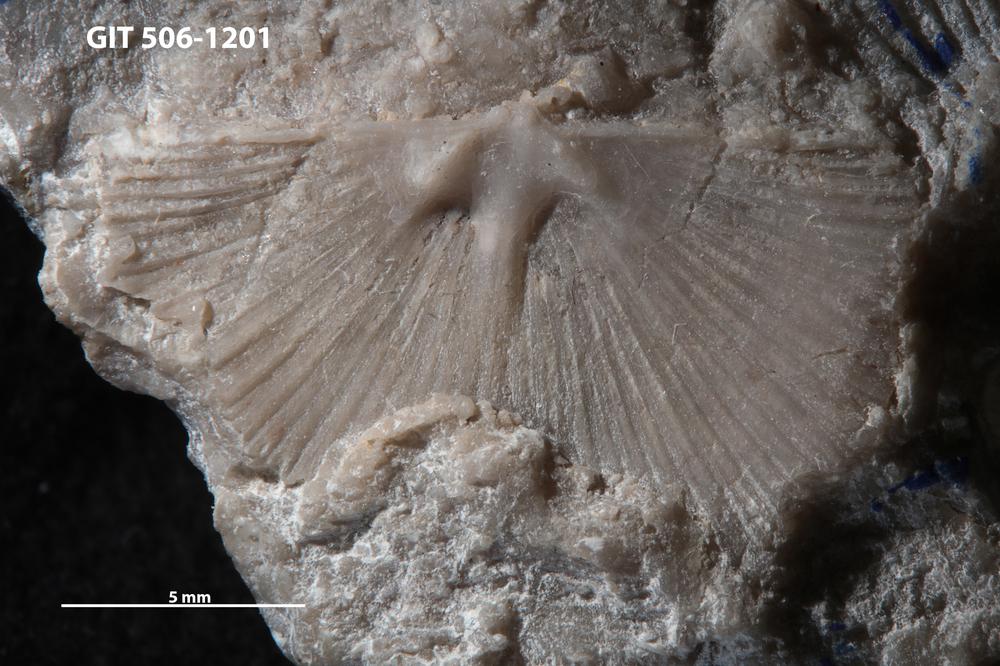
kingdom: Animalia
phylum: Brachiopoda
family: Chilidiopsidae
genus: Fardenia
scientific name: Fardenia Orthis applanata
